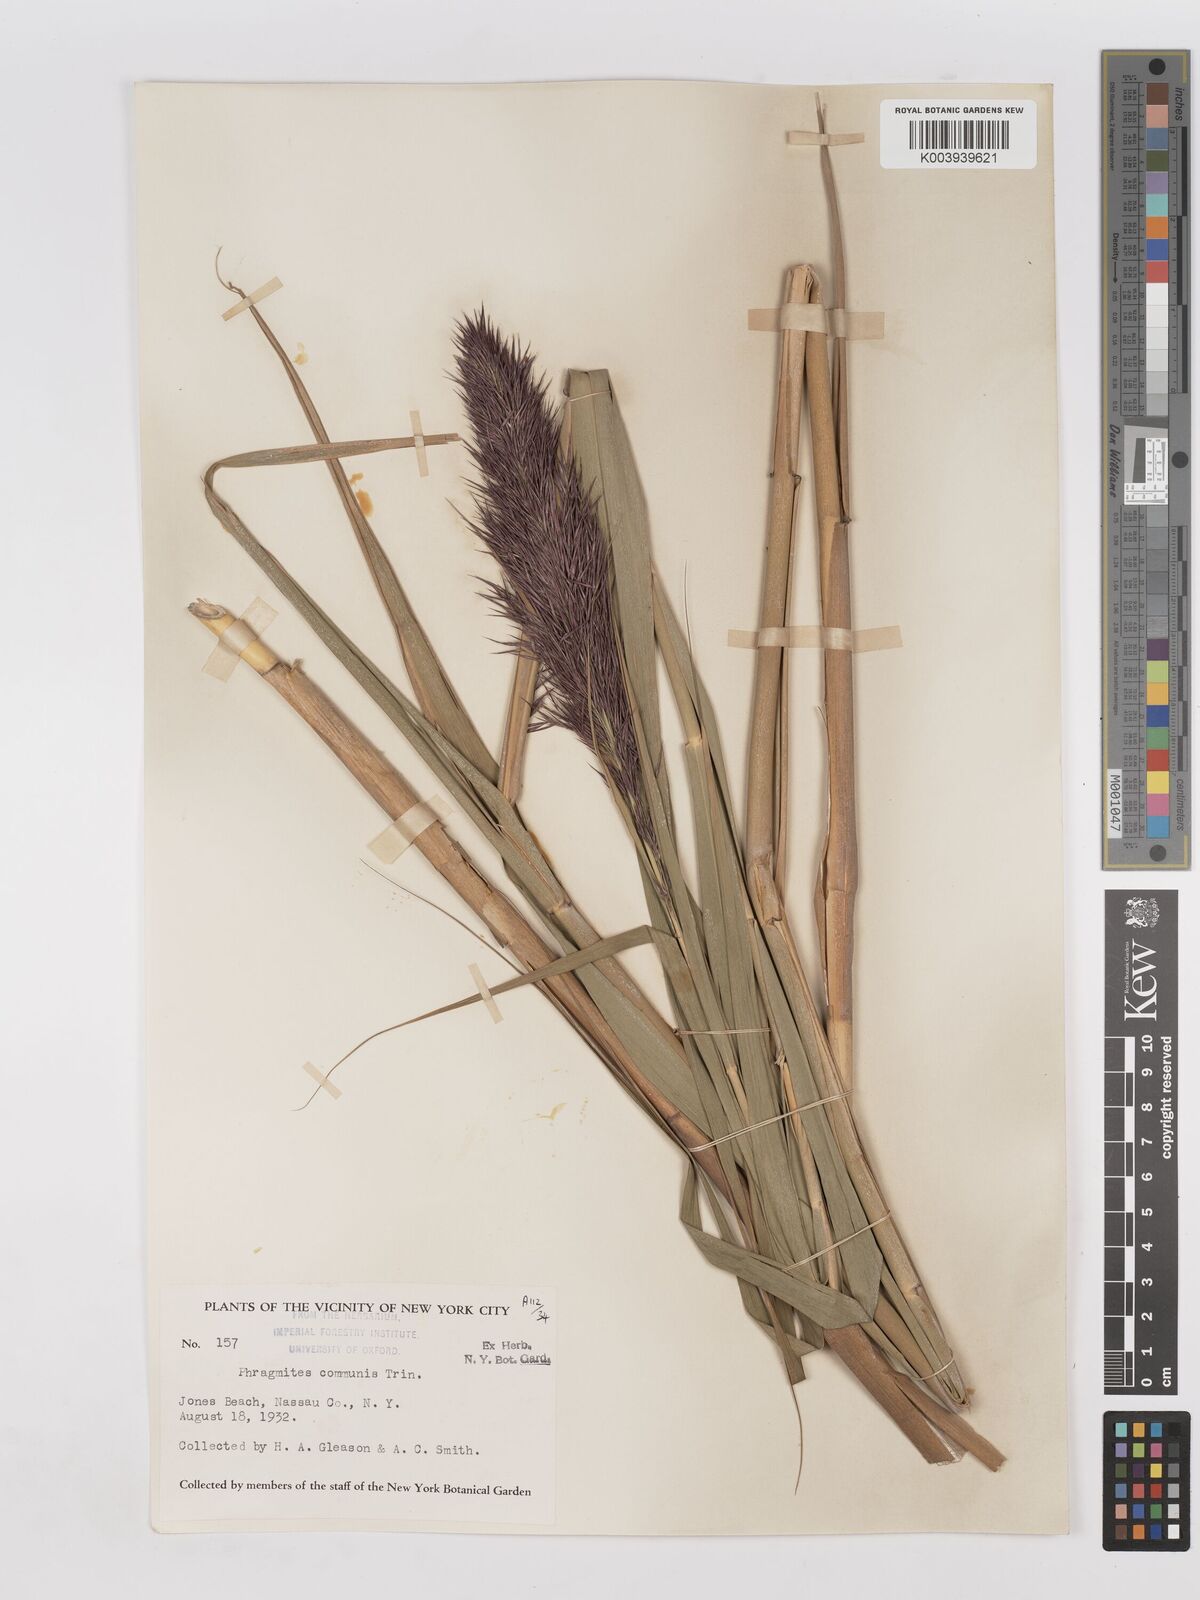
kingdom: Plantae
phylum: Tracheophyta
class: Liliopsida
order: Poales
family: Poaceae
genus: Phragmites
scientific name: Phragmites australis
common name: Common reed
